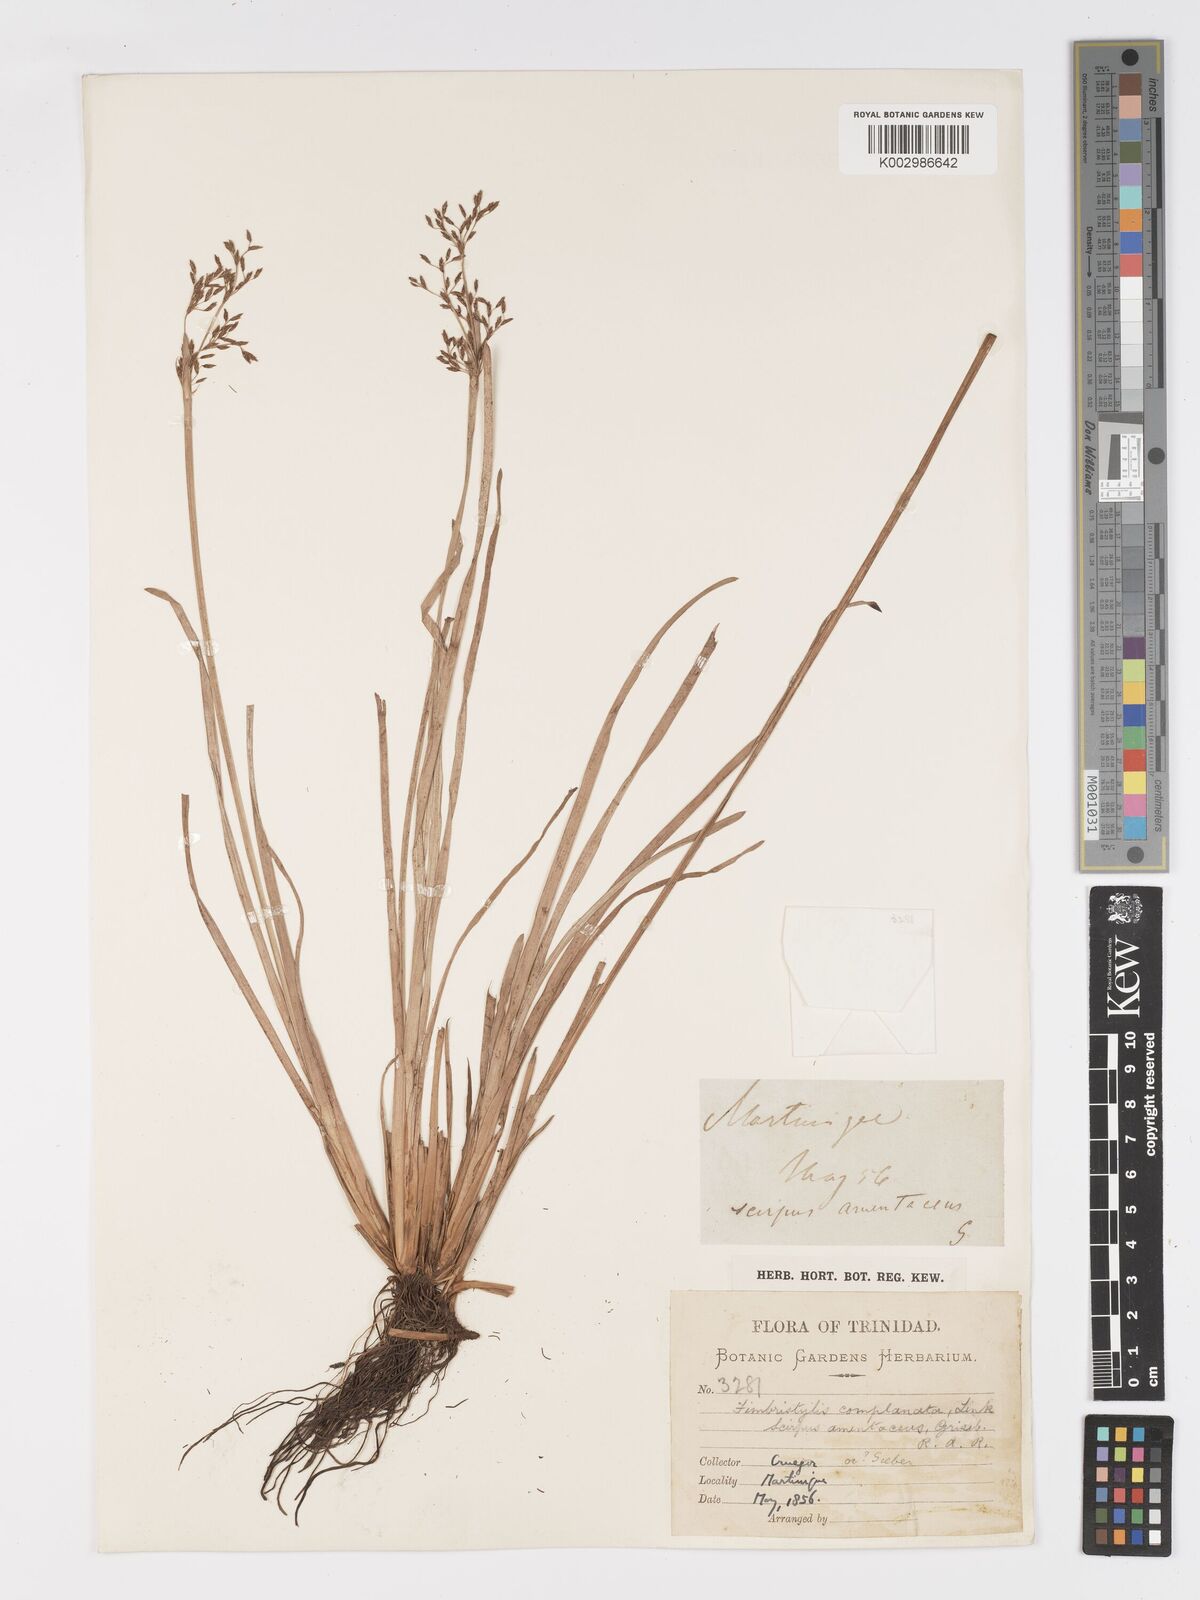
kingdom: Plantae
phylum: Tracheophyta
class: Liliopsida
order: Poales
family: Cyperaceae
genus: Fimbristylis
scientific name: Fimbristylis complanata
